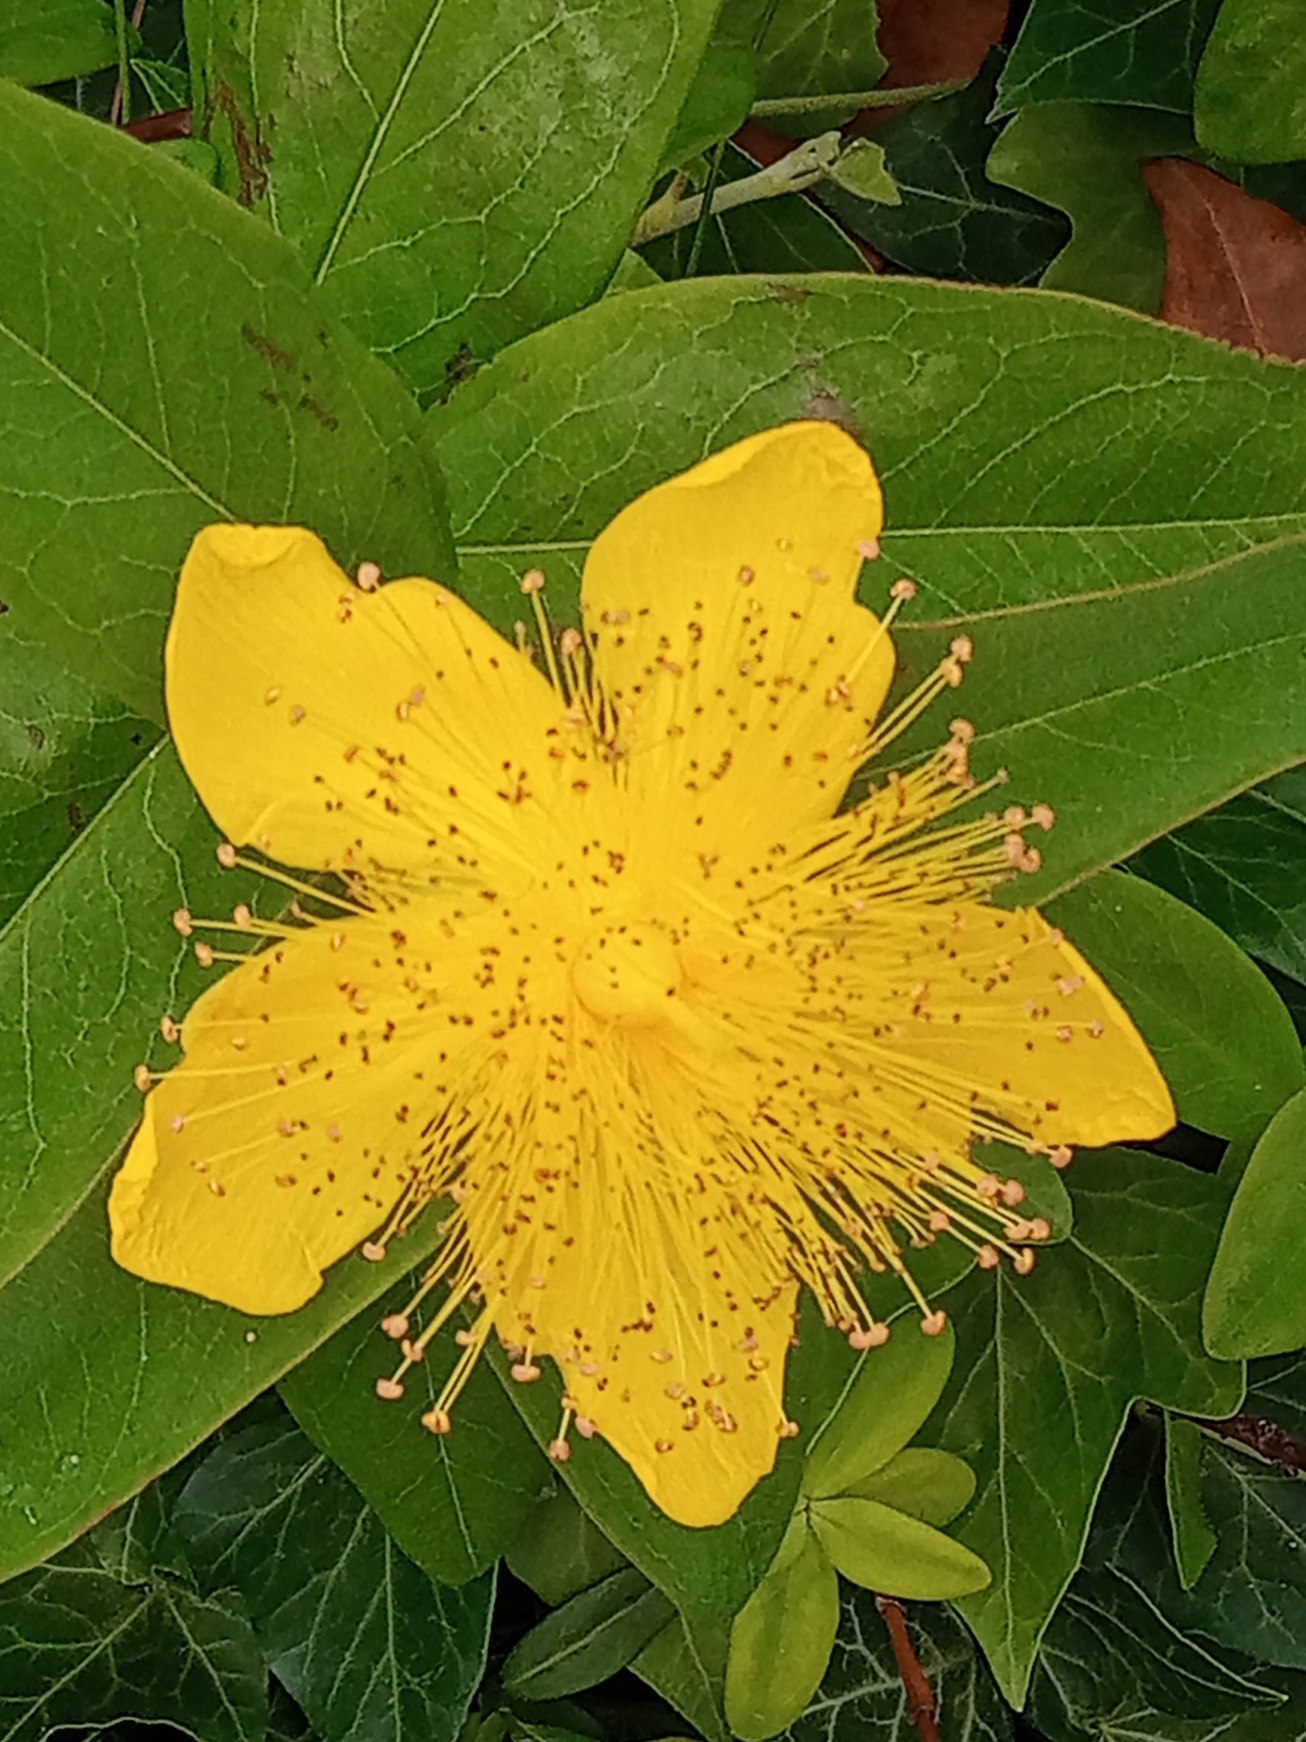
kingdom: Plantae
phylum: Tracheophyta
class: Magnoliopsida
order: Malpighiales
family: Hypericaceae
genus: Hypericum
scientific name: Hypericum
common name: Perikonslægten
